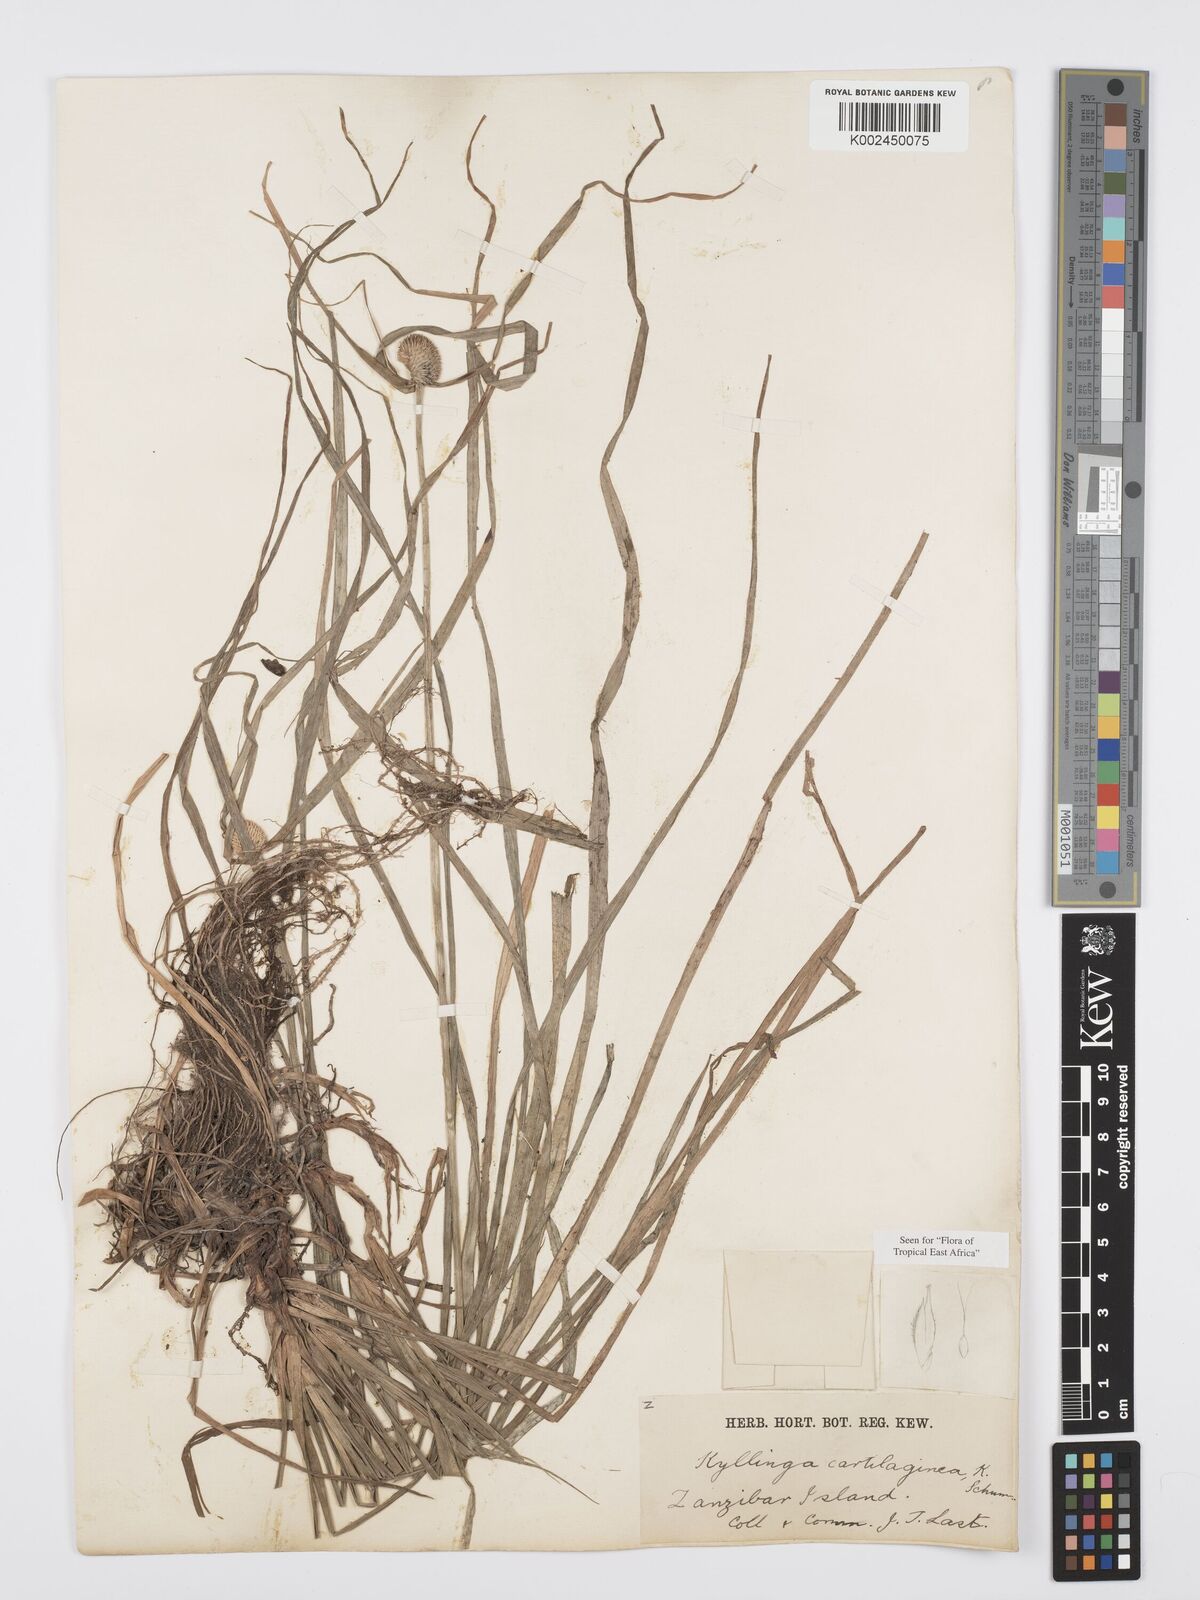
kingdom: Plantae
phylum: Tracheophyta
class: Liliopsida
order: Poales
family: Cyperaceae
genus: Cyperus
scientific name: Cyperus cartilagineus
